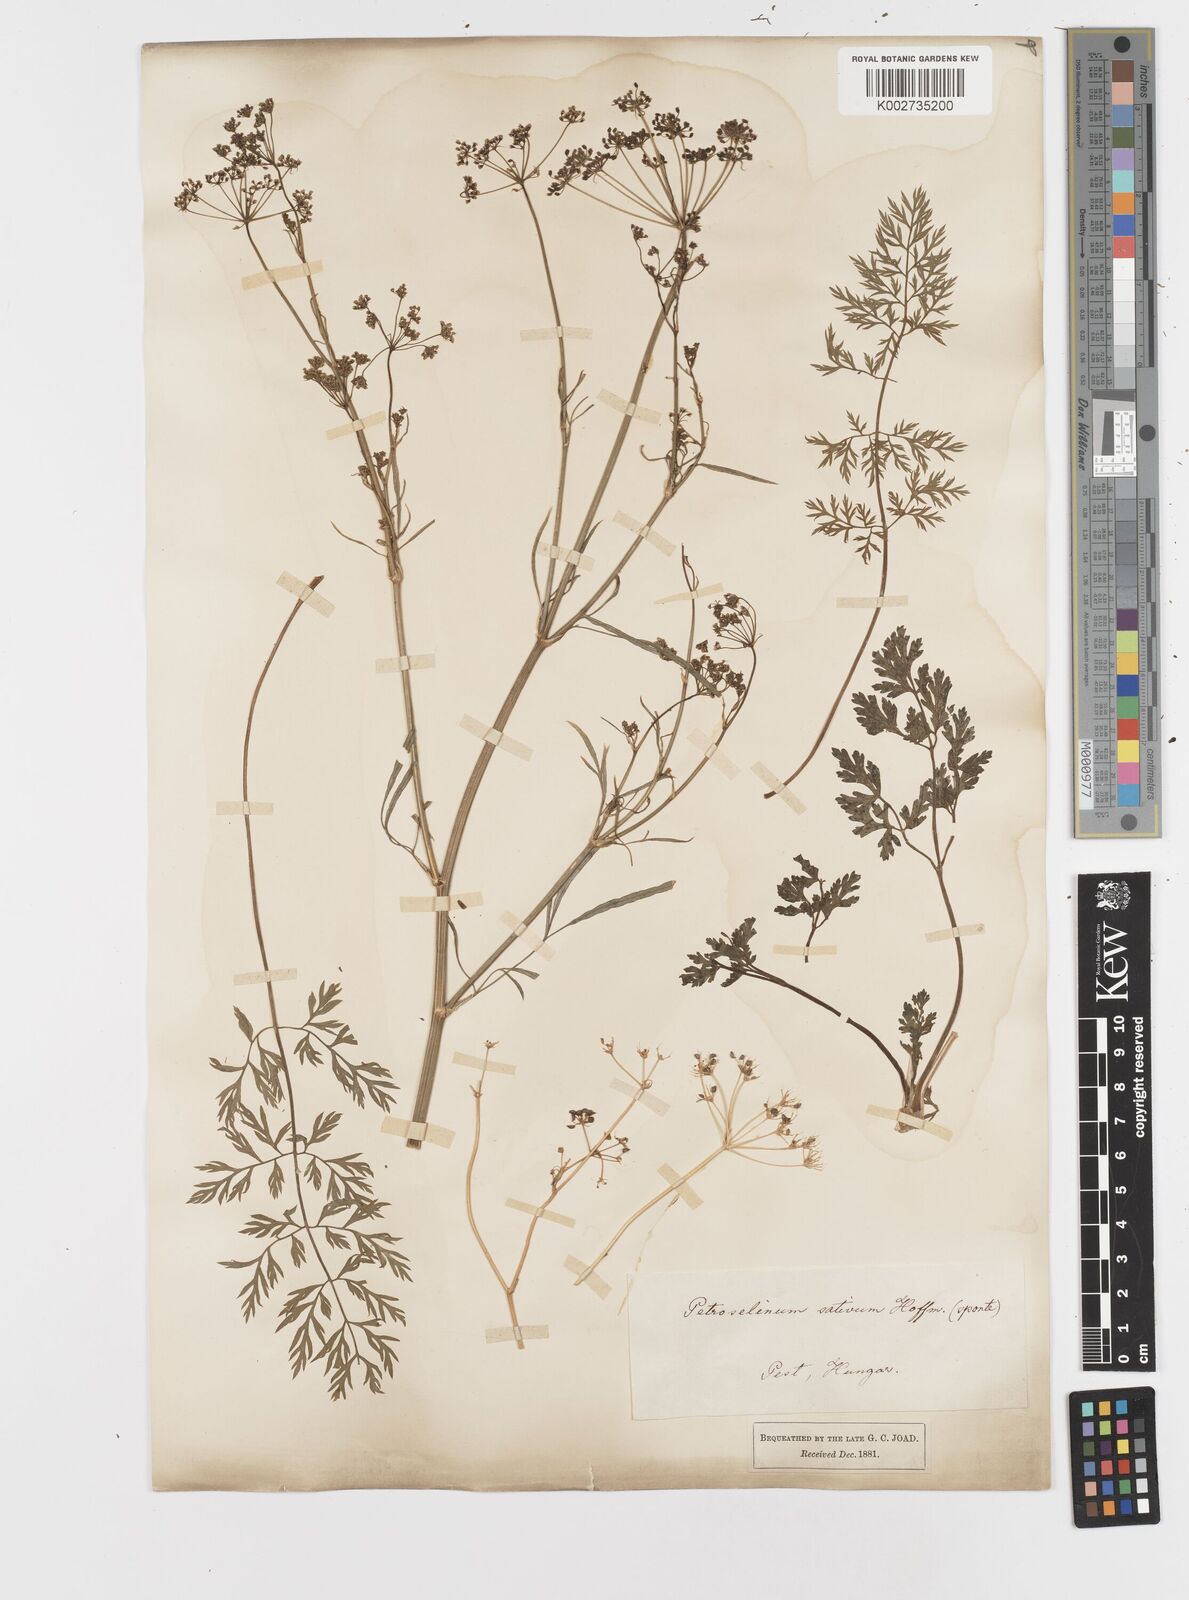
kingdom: Plantae
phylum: Tracheophyta
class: Magnoliopsida
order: Apiales
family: Apiaceae
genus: Petroselinum
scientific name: Petroselinum crispum
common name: Parsley
